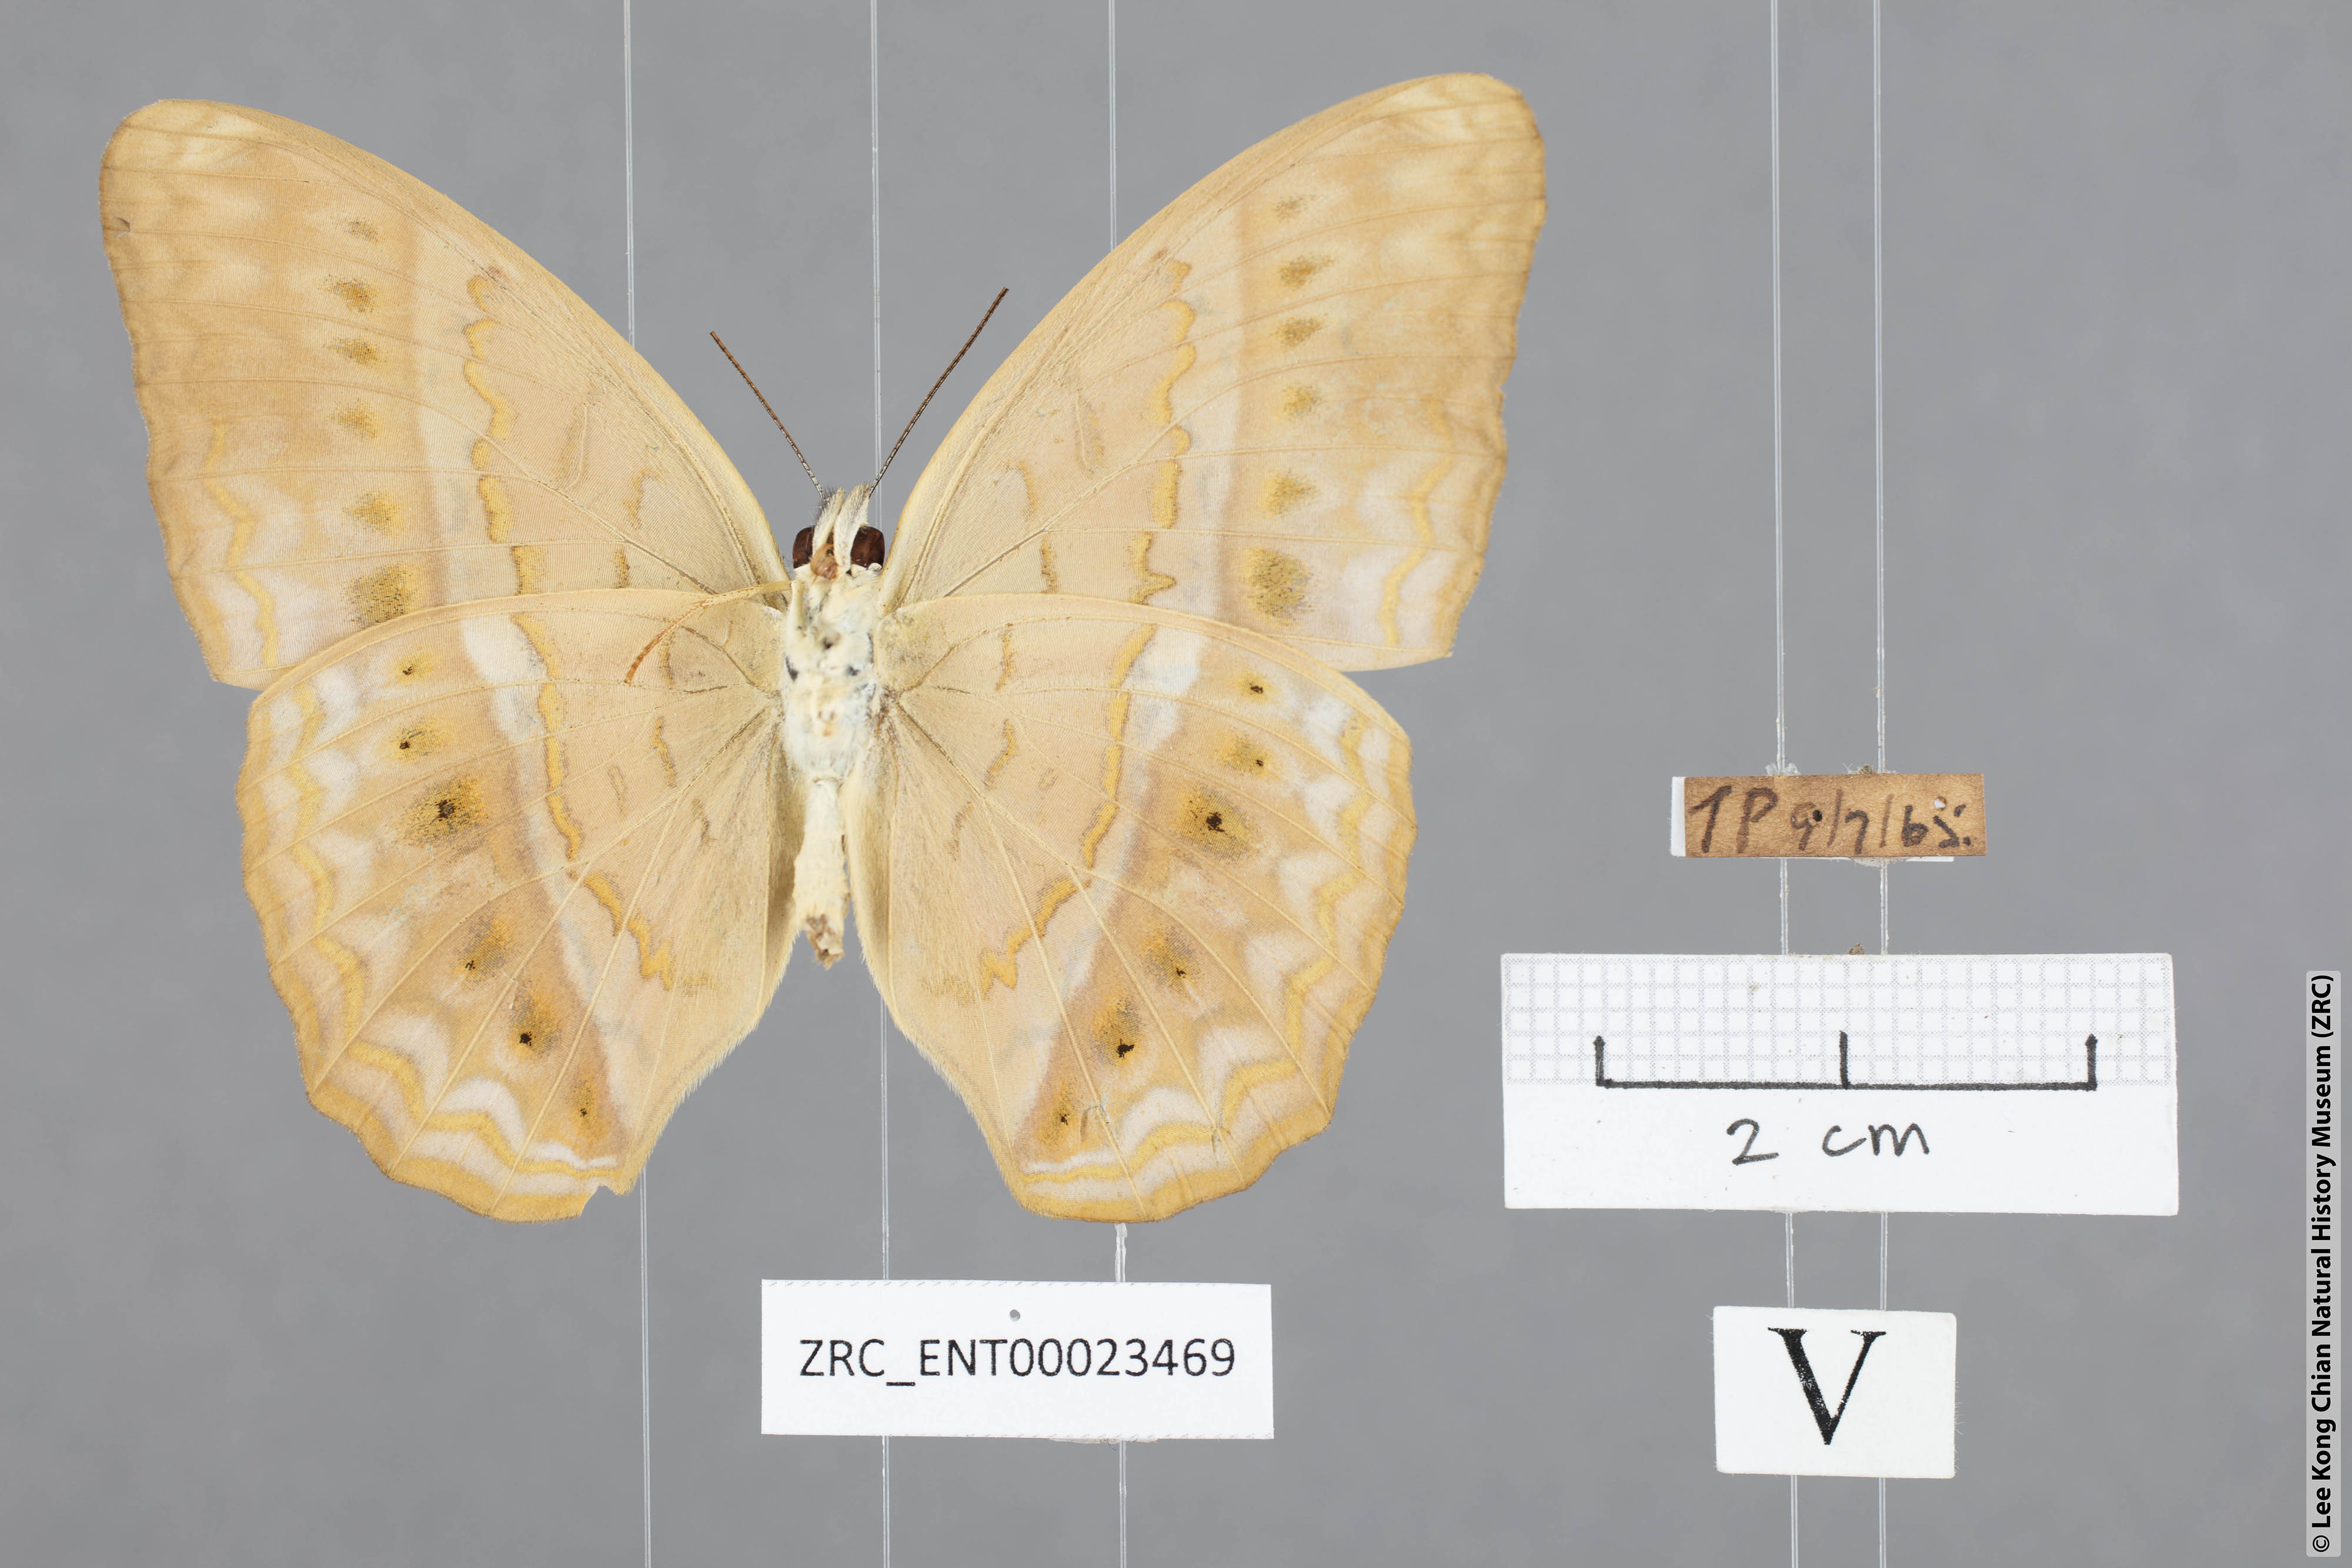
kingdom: Animalia
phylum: Arthropoda
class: Insecta
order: Lepidoptera
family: Nymphalidae
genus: Cirrochroa
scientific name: Cirrochroa tyche
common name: Common yeoman
